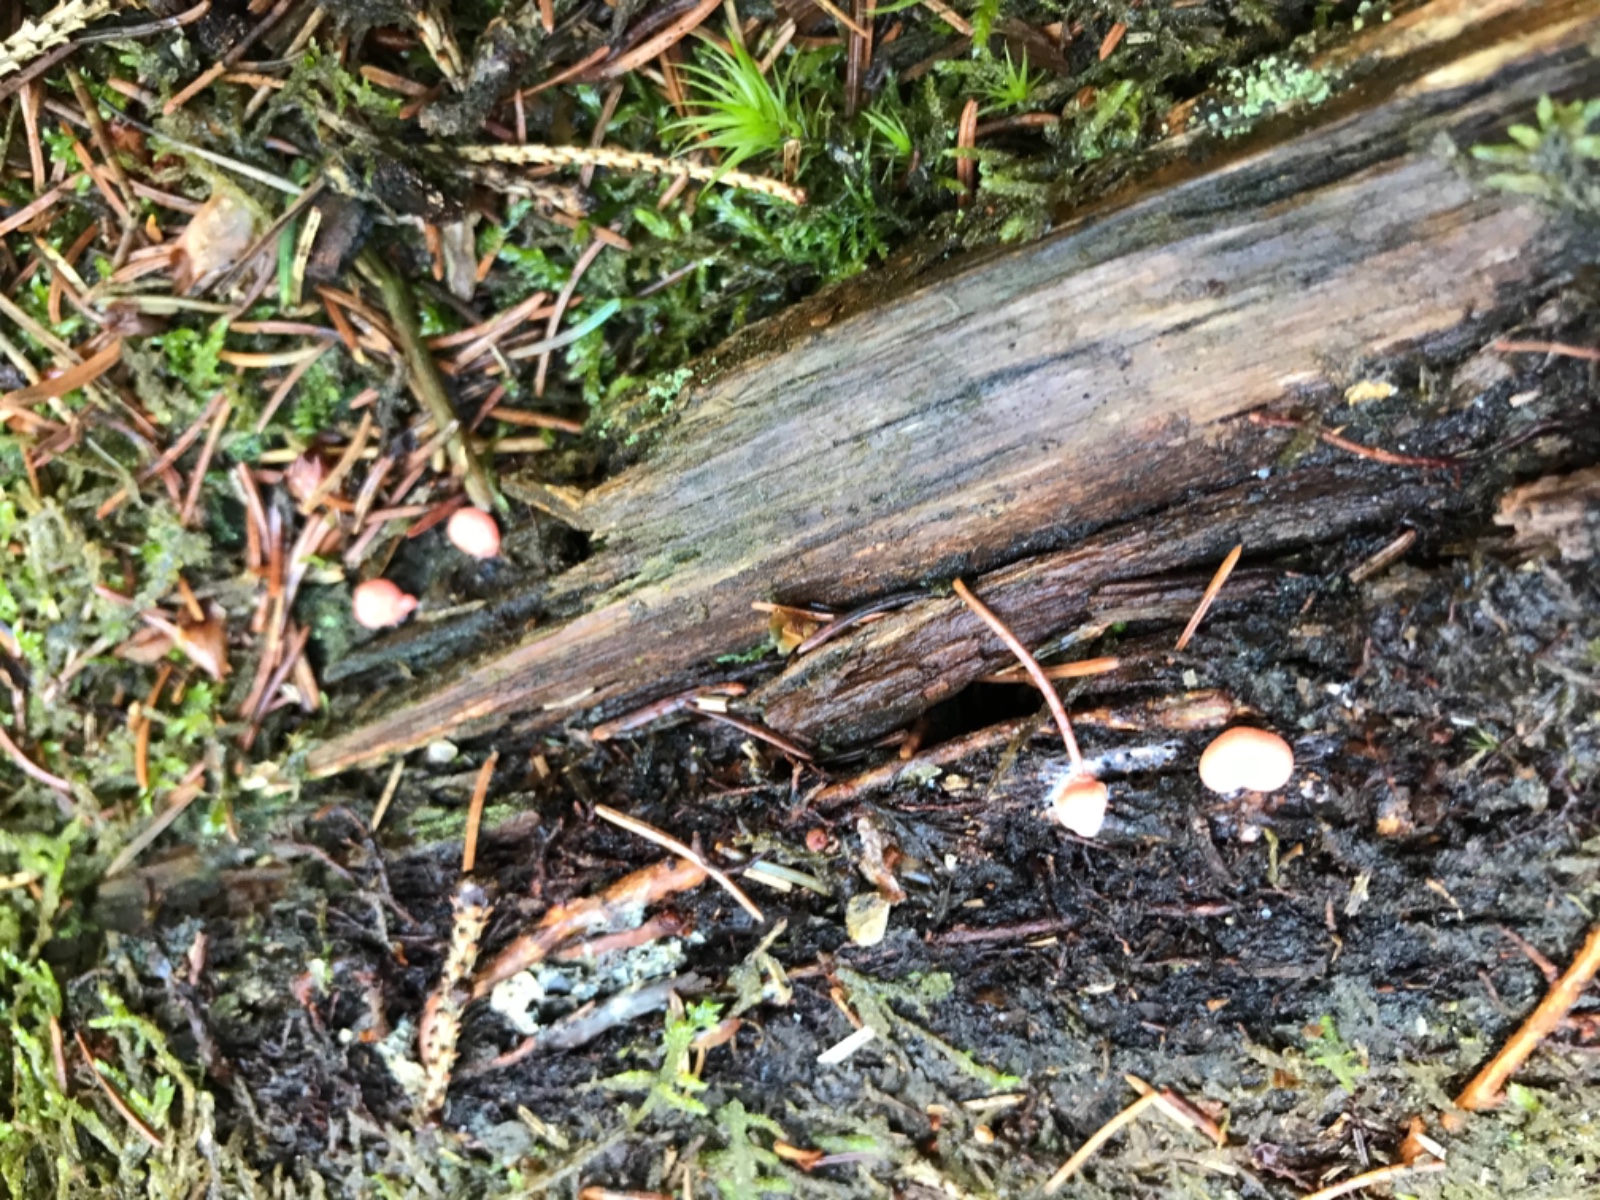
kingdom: Protozoa
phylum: Mycetozoa
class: Myxomycetes
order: Cribrariales
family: Tubiferaceae
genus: Lycogala
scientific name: Lycogala epidendrum
